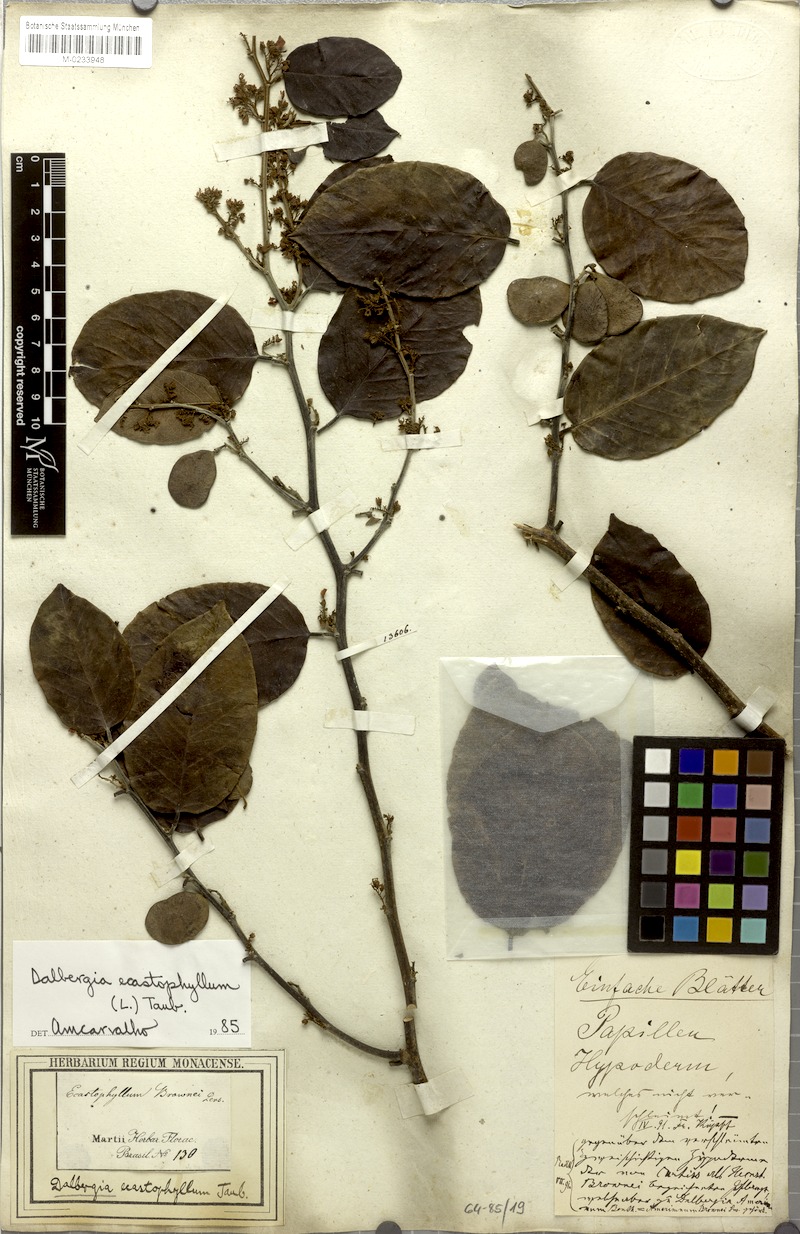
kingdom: Plantae
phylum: Tracheophyta
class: Magnoliopsida
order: Fabales
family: Fabaceae
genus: Dalbergia
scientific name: Dalbergia ecastaphyllum
